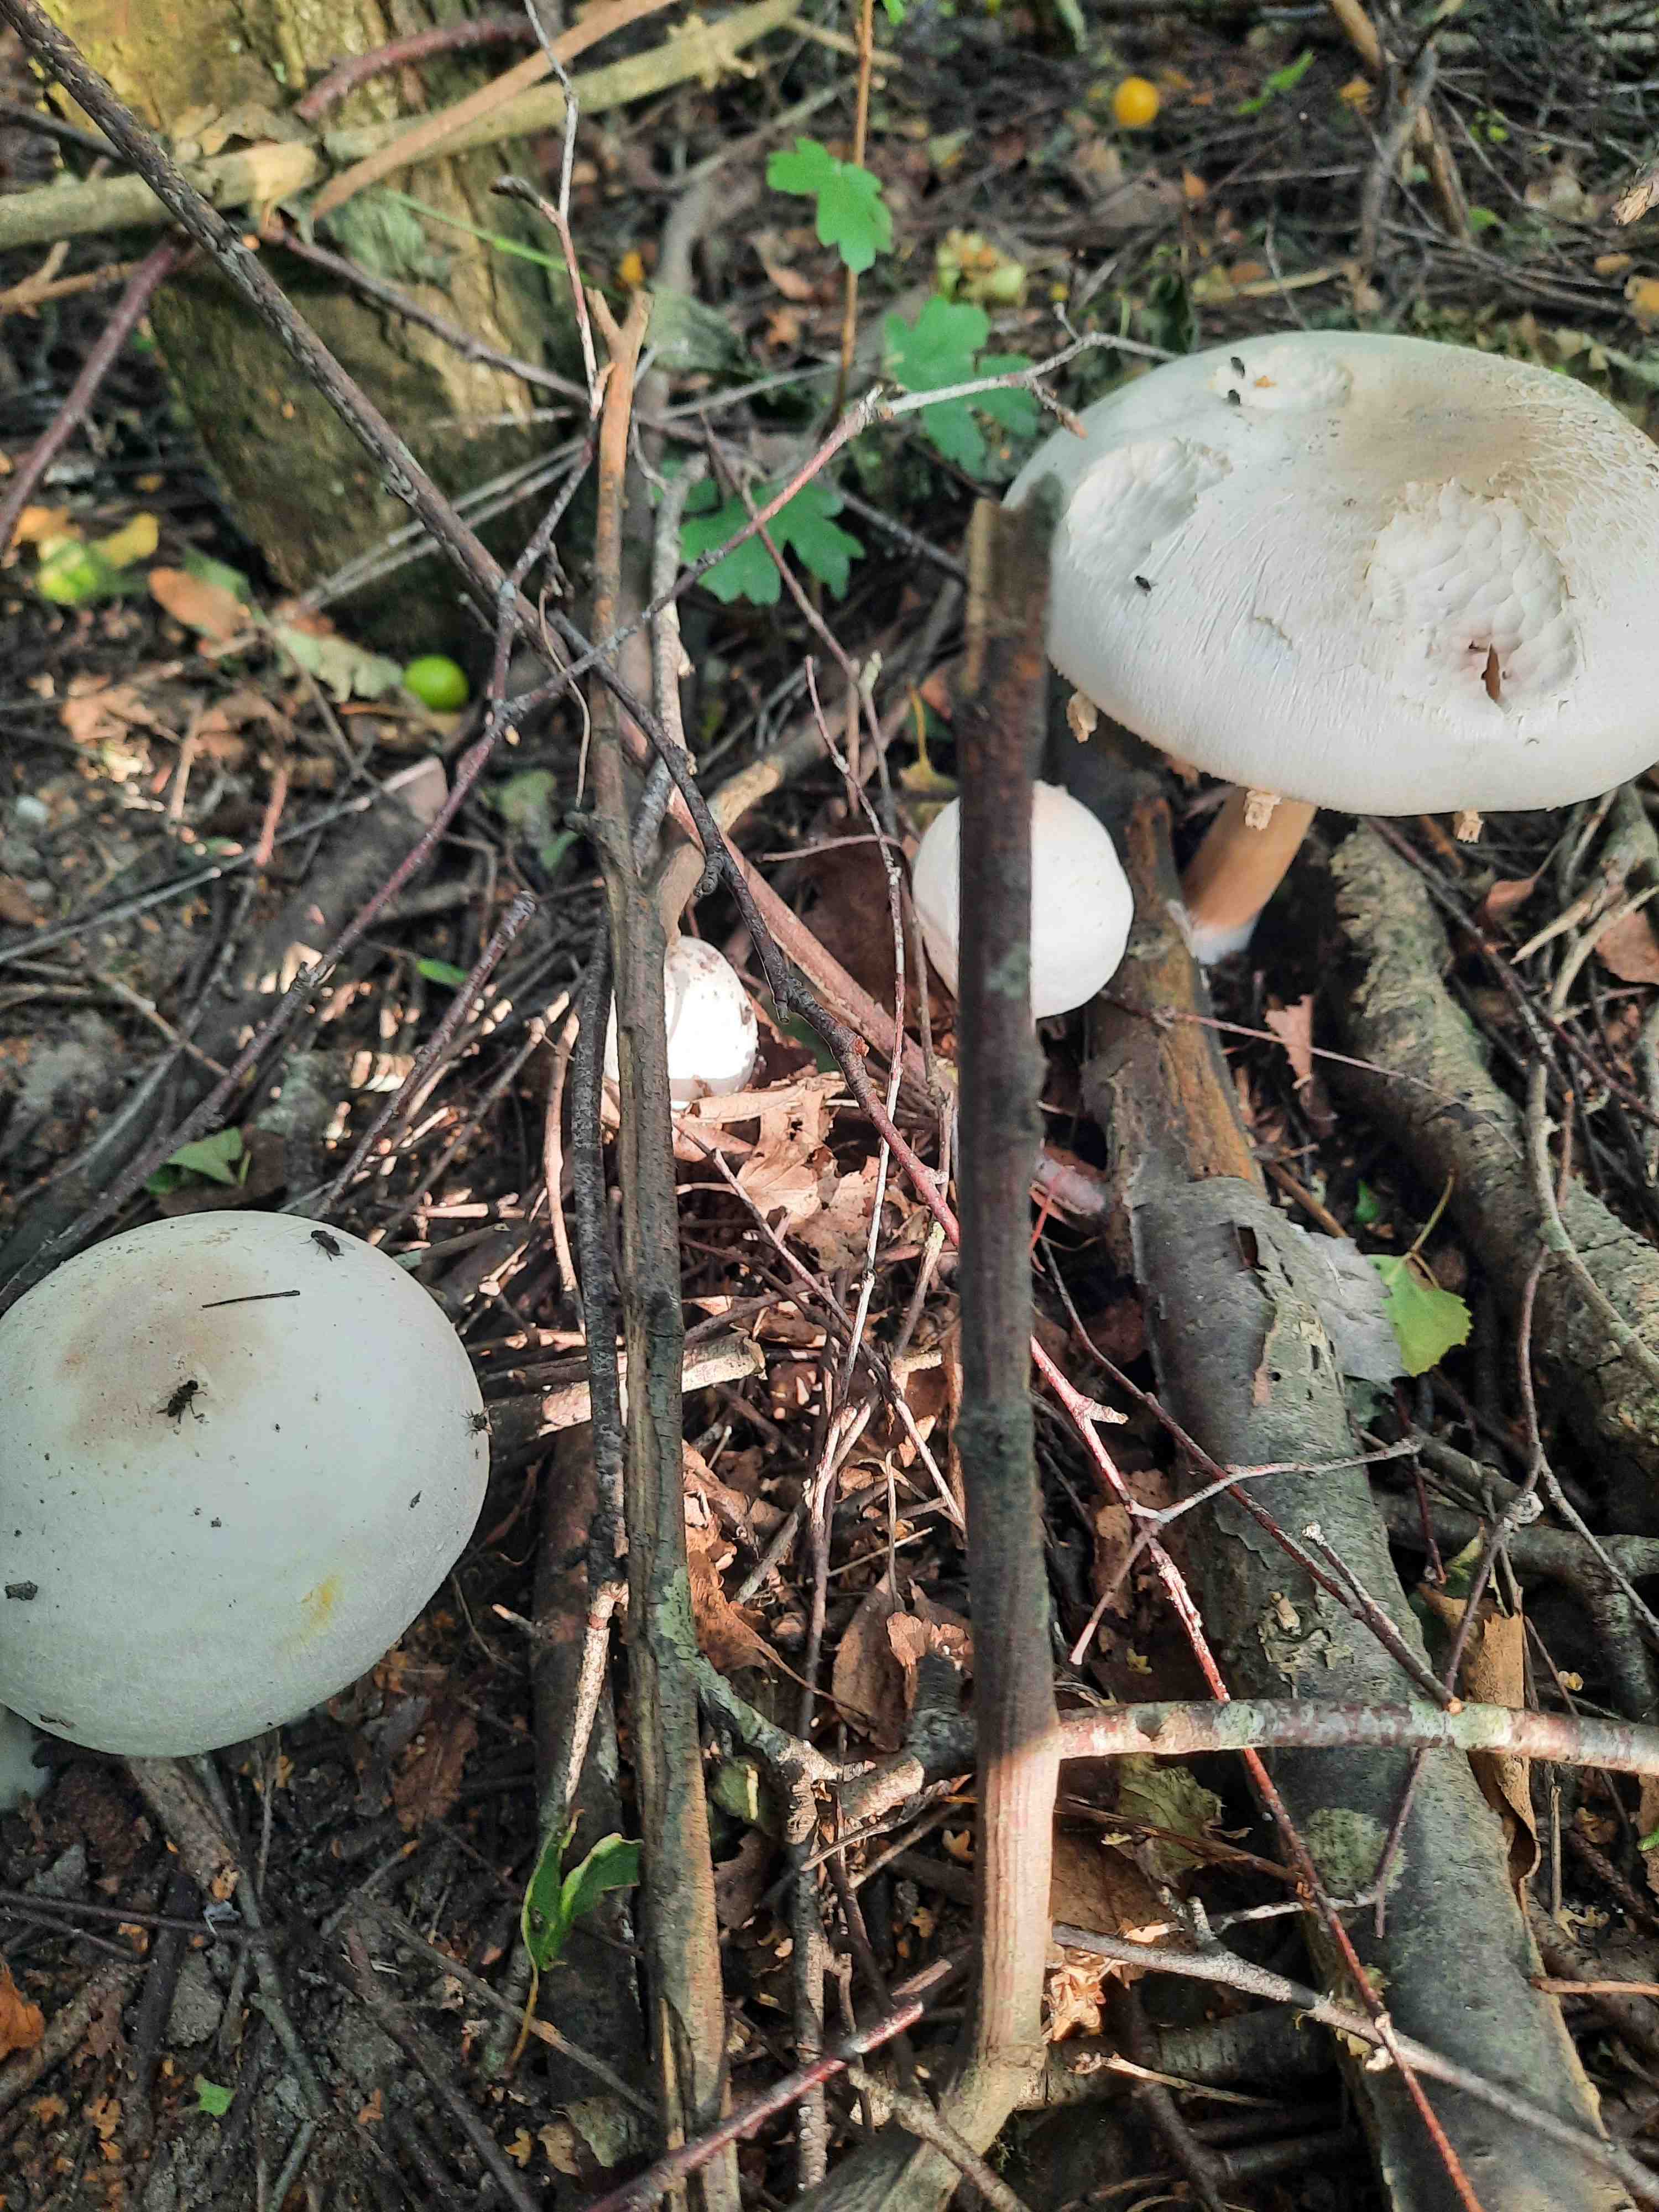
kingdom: Fungi
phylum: Basidiomycota
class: Agaricomycetes
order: Agaricales
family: Agaricaceae
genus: Agaricus
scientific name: Agaricus xanthodermus
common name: karbol-champignon
